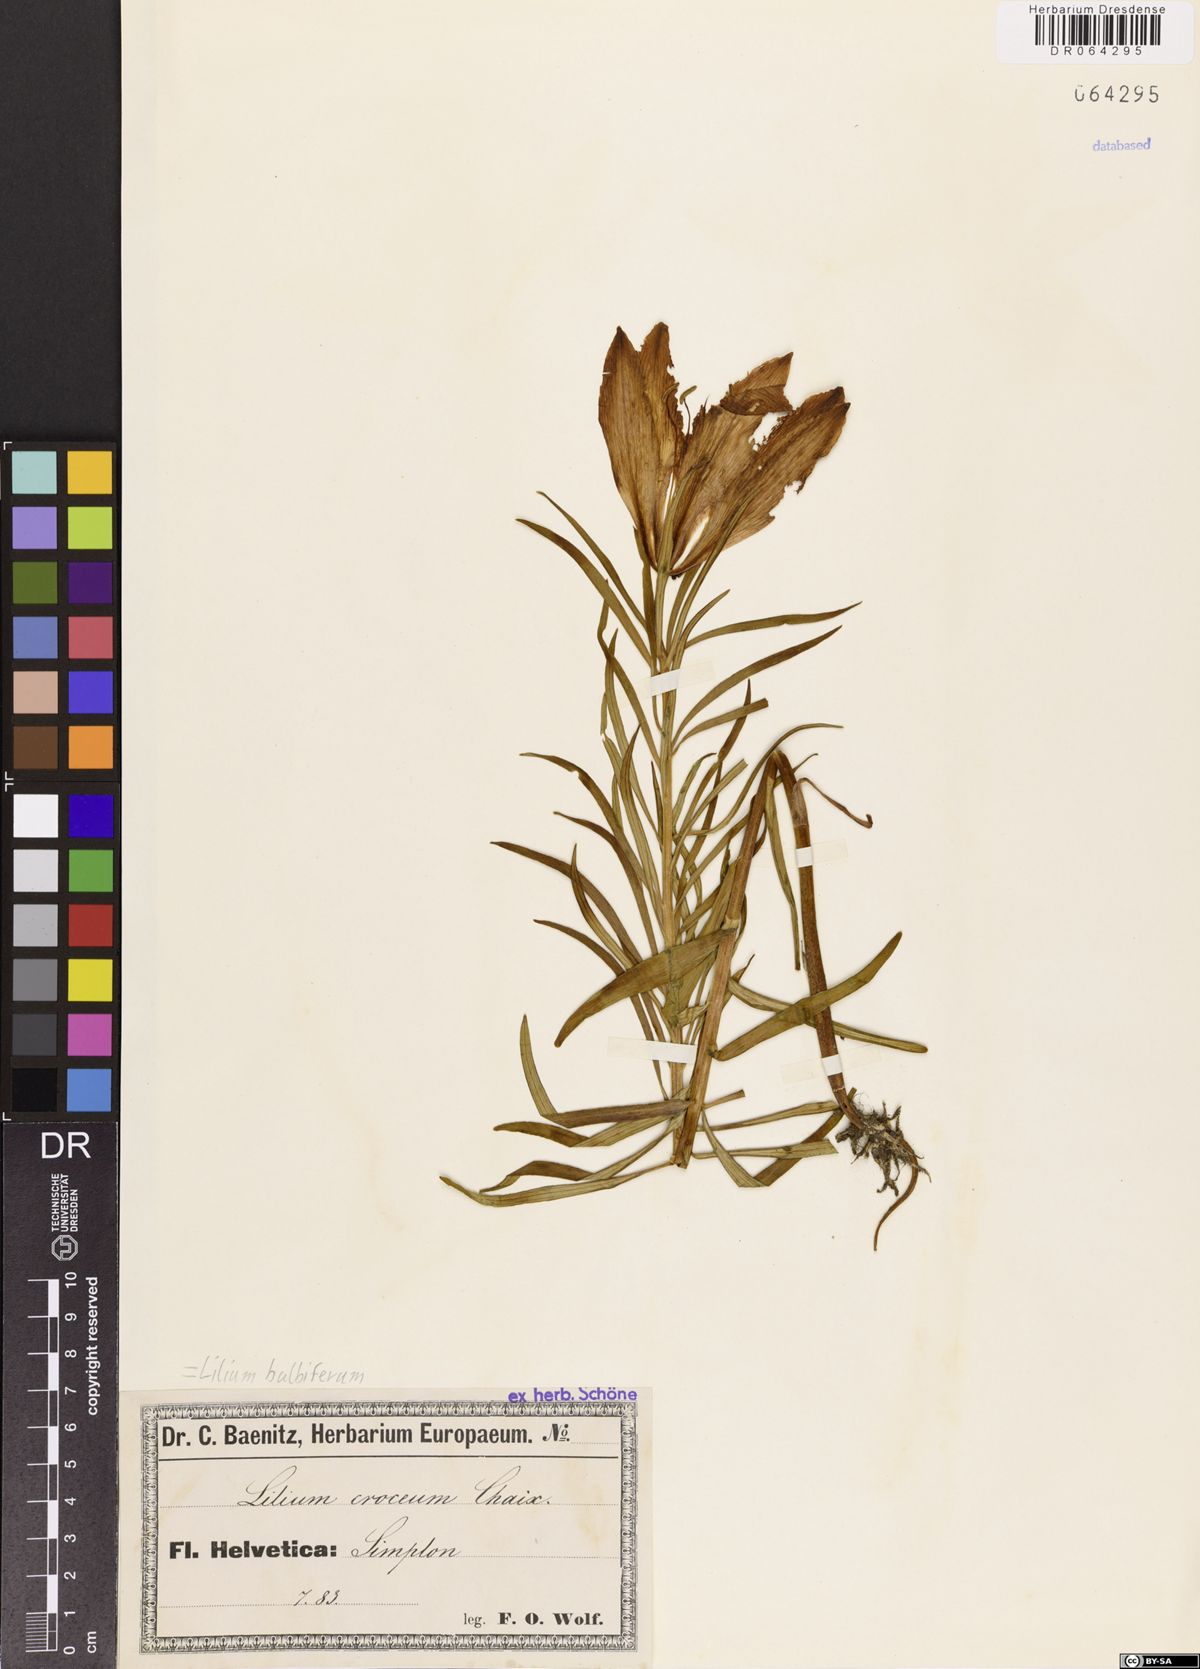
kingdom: Plantae
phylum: Tracheophyta
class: Liliopsida
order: Liliales
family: Liliaceae
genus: Lilium
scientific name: Lilium bulbiferum
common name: Orange lily
